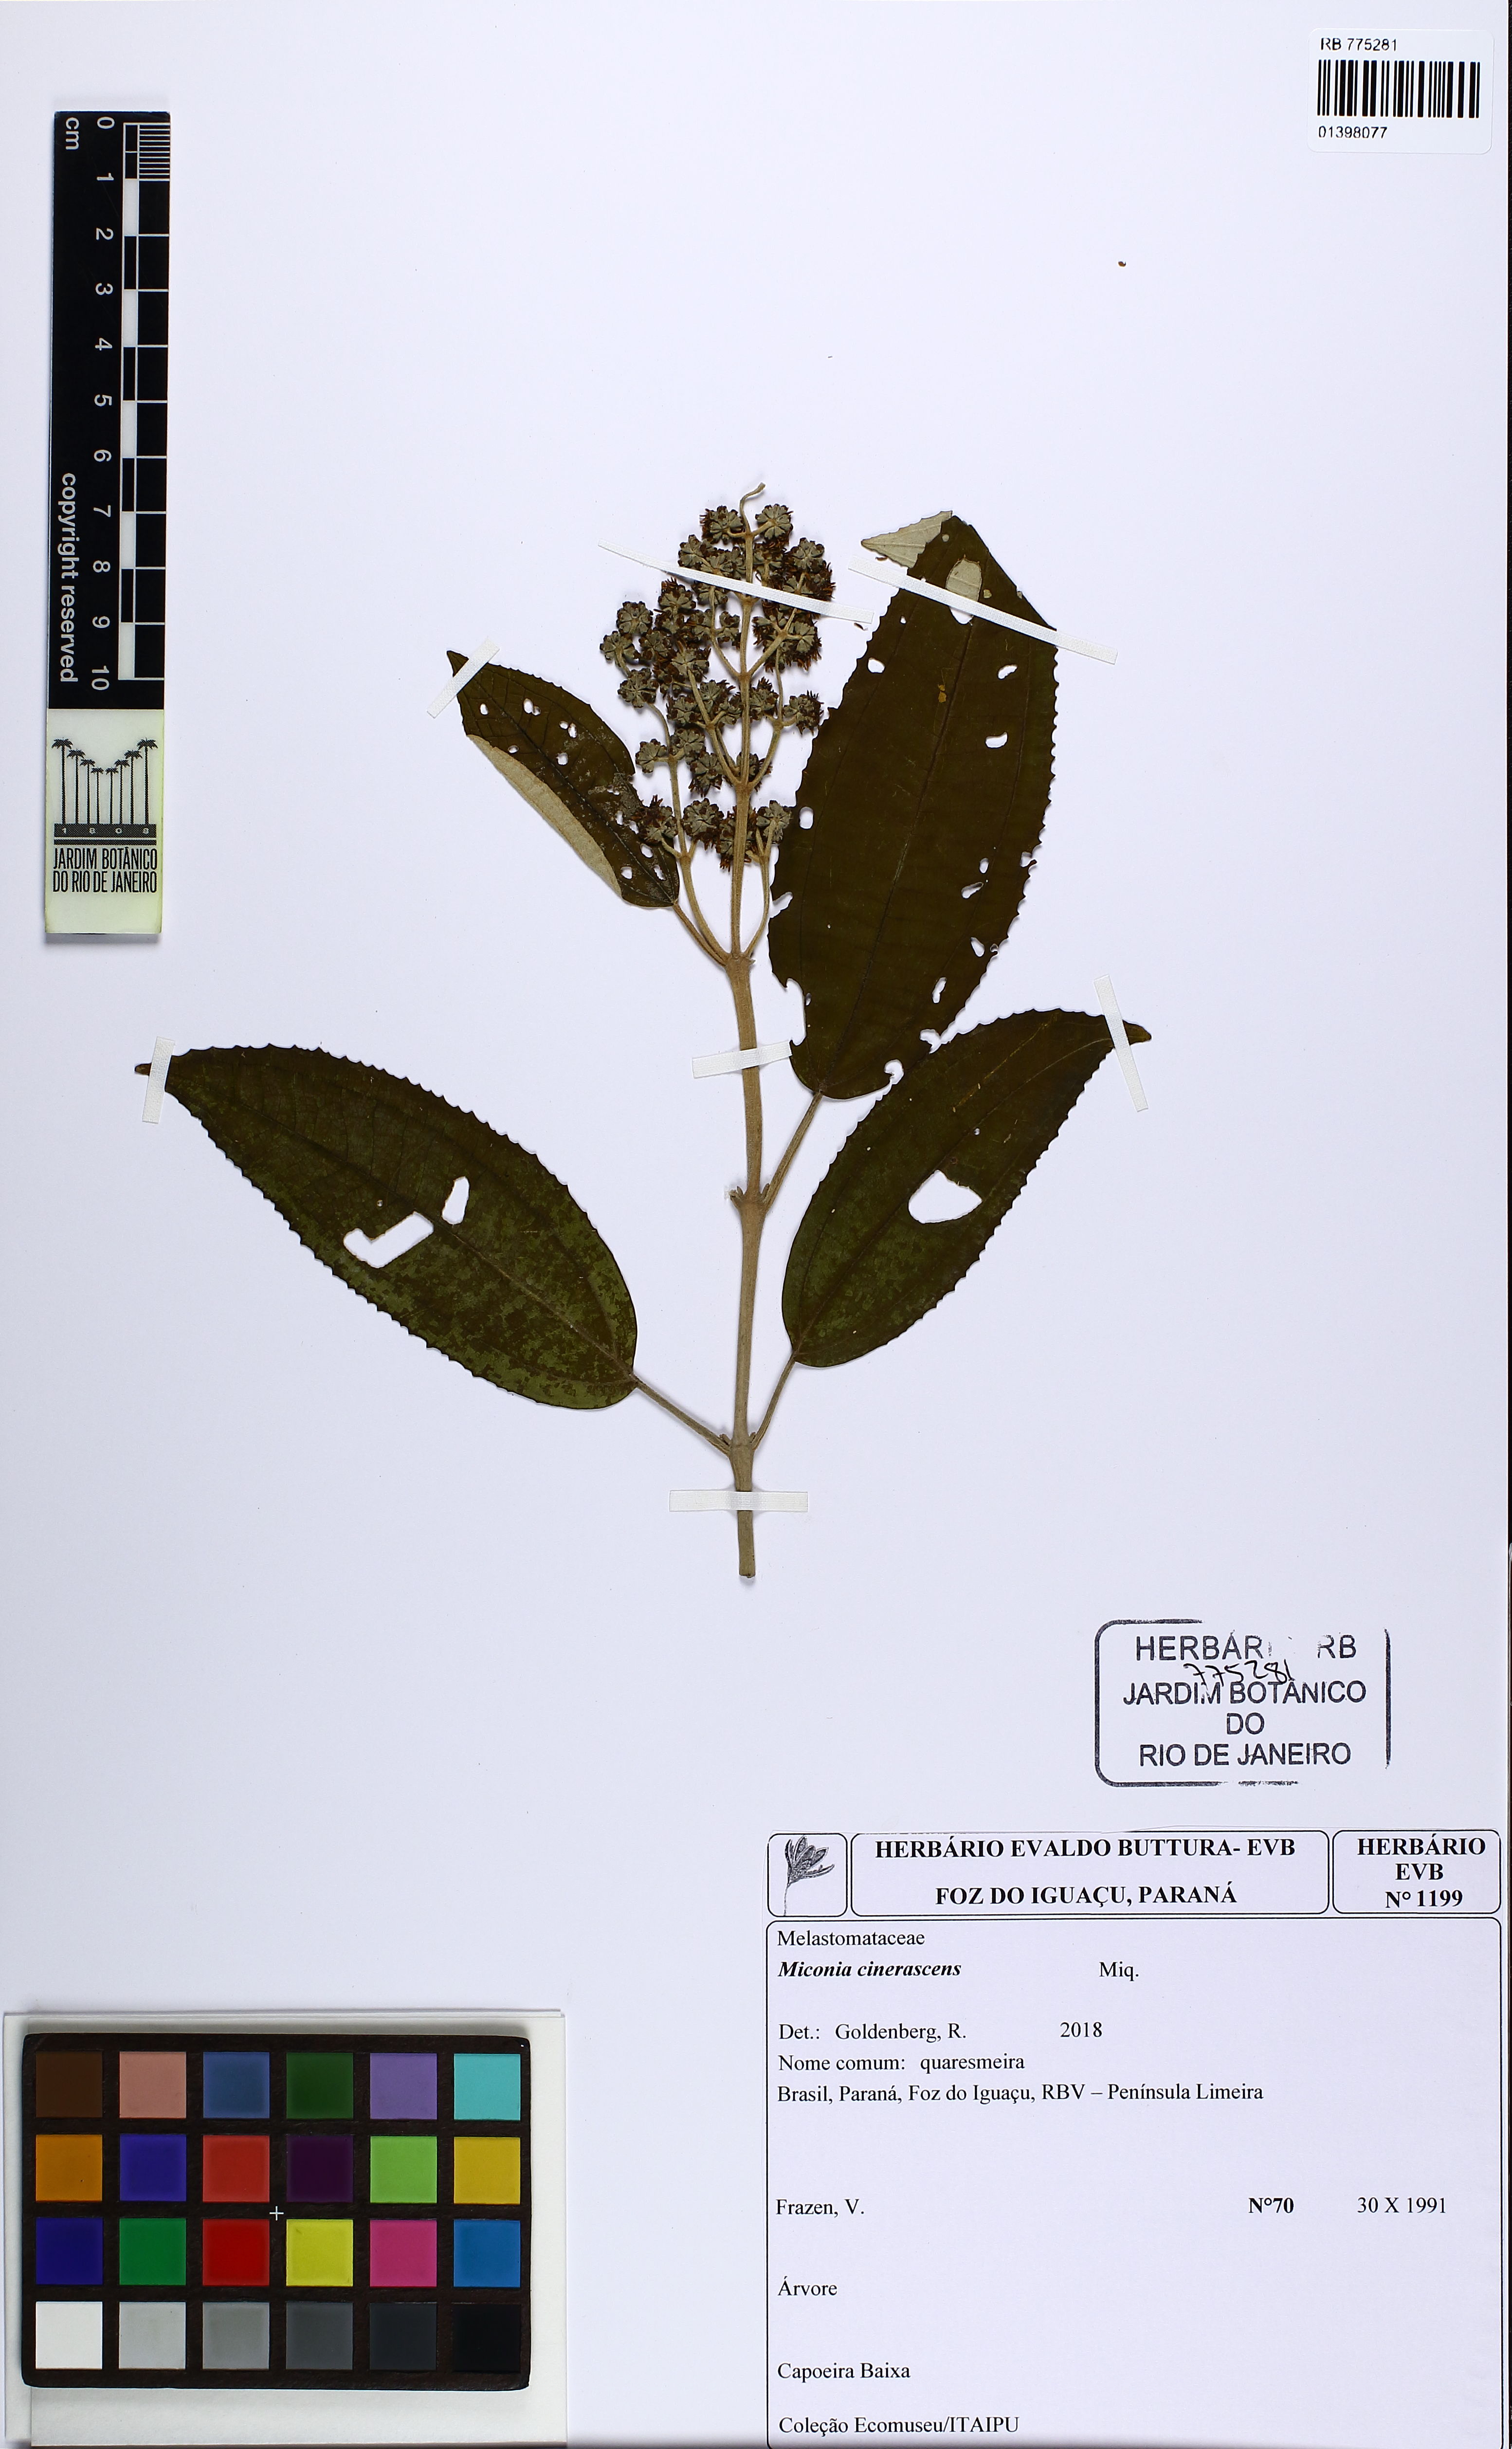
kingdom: Plantae
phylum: Tracheophyta
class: Magnoliopsida
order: Myrtales
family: Melastomataceae
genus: Miconia
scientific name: Miconia cinerascens
